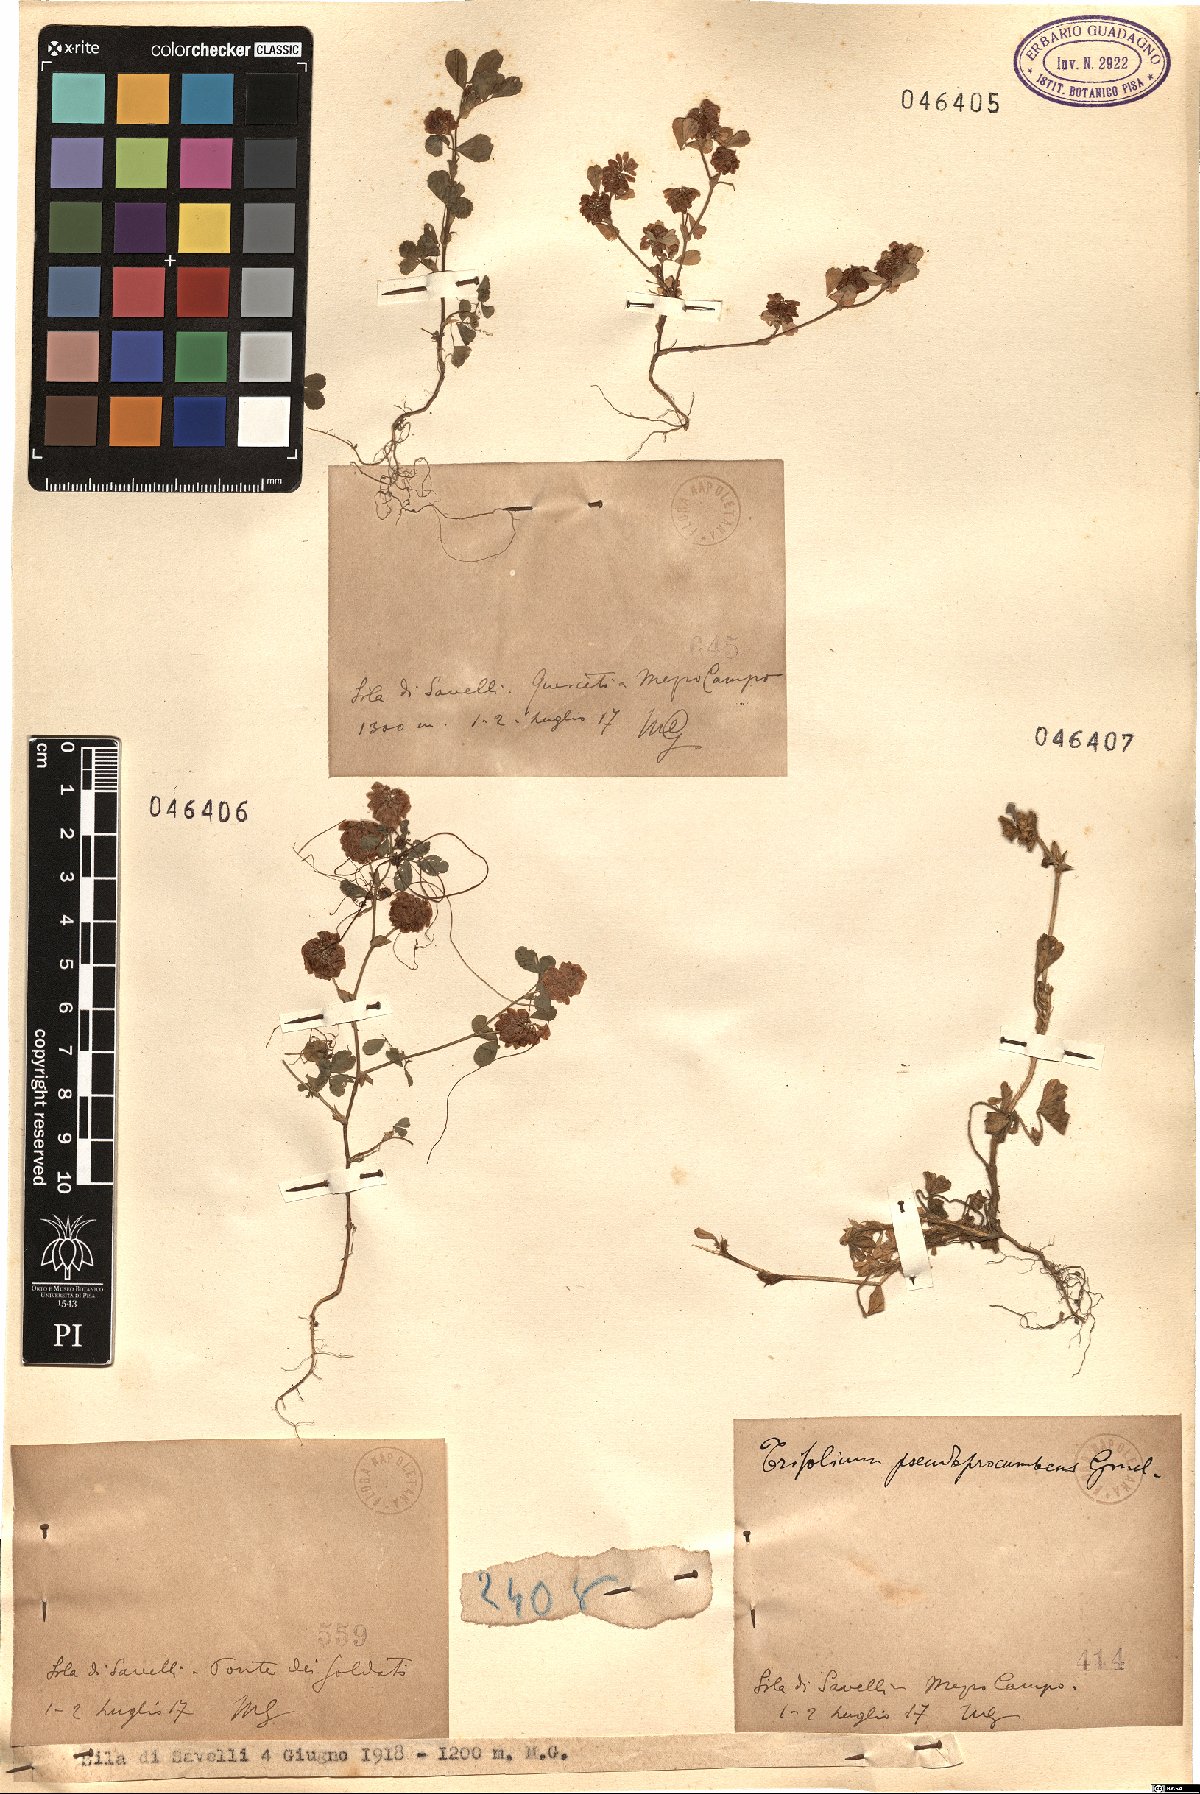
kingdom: Plantae
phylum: Tracheophyta
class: Magnoliopsida
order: Fabales
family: Fabaceae
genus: Trifolium
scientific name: Trifolium
